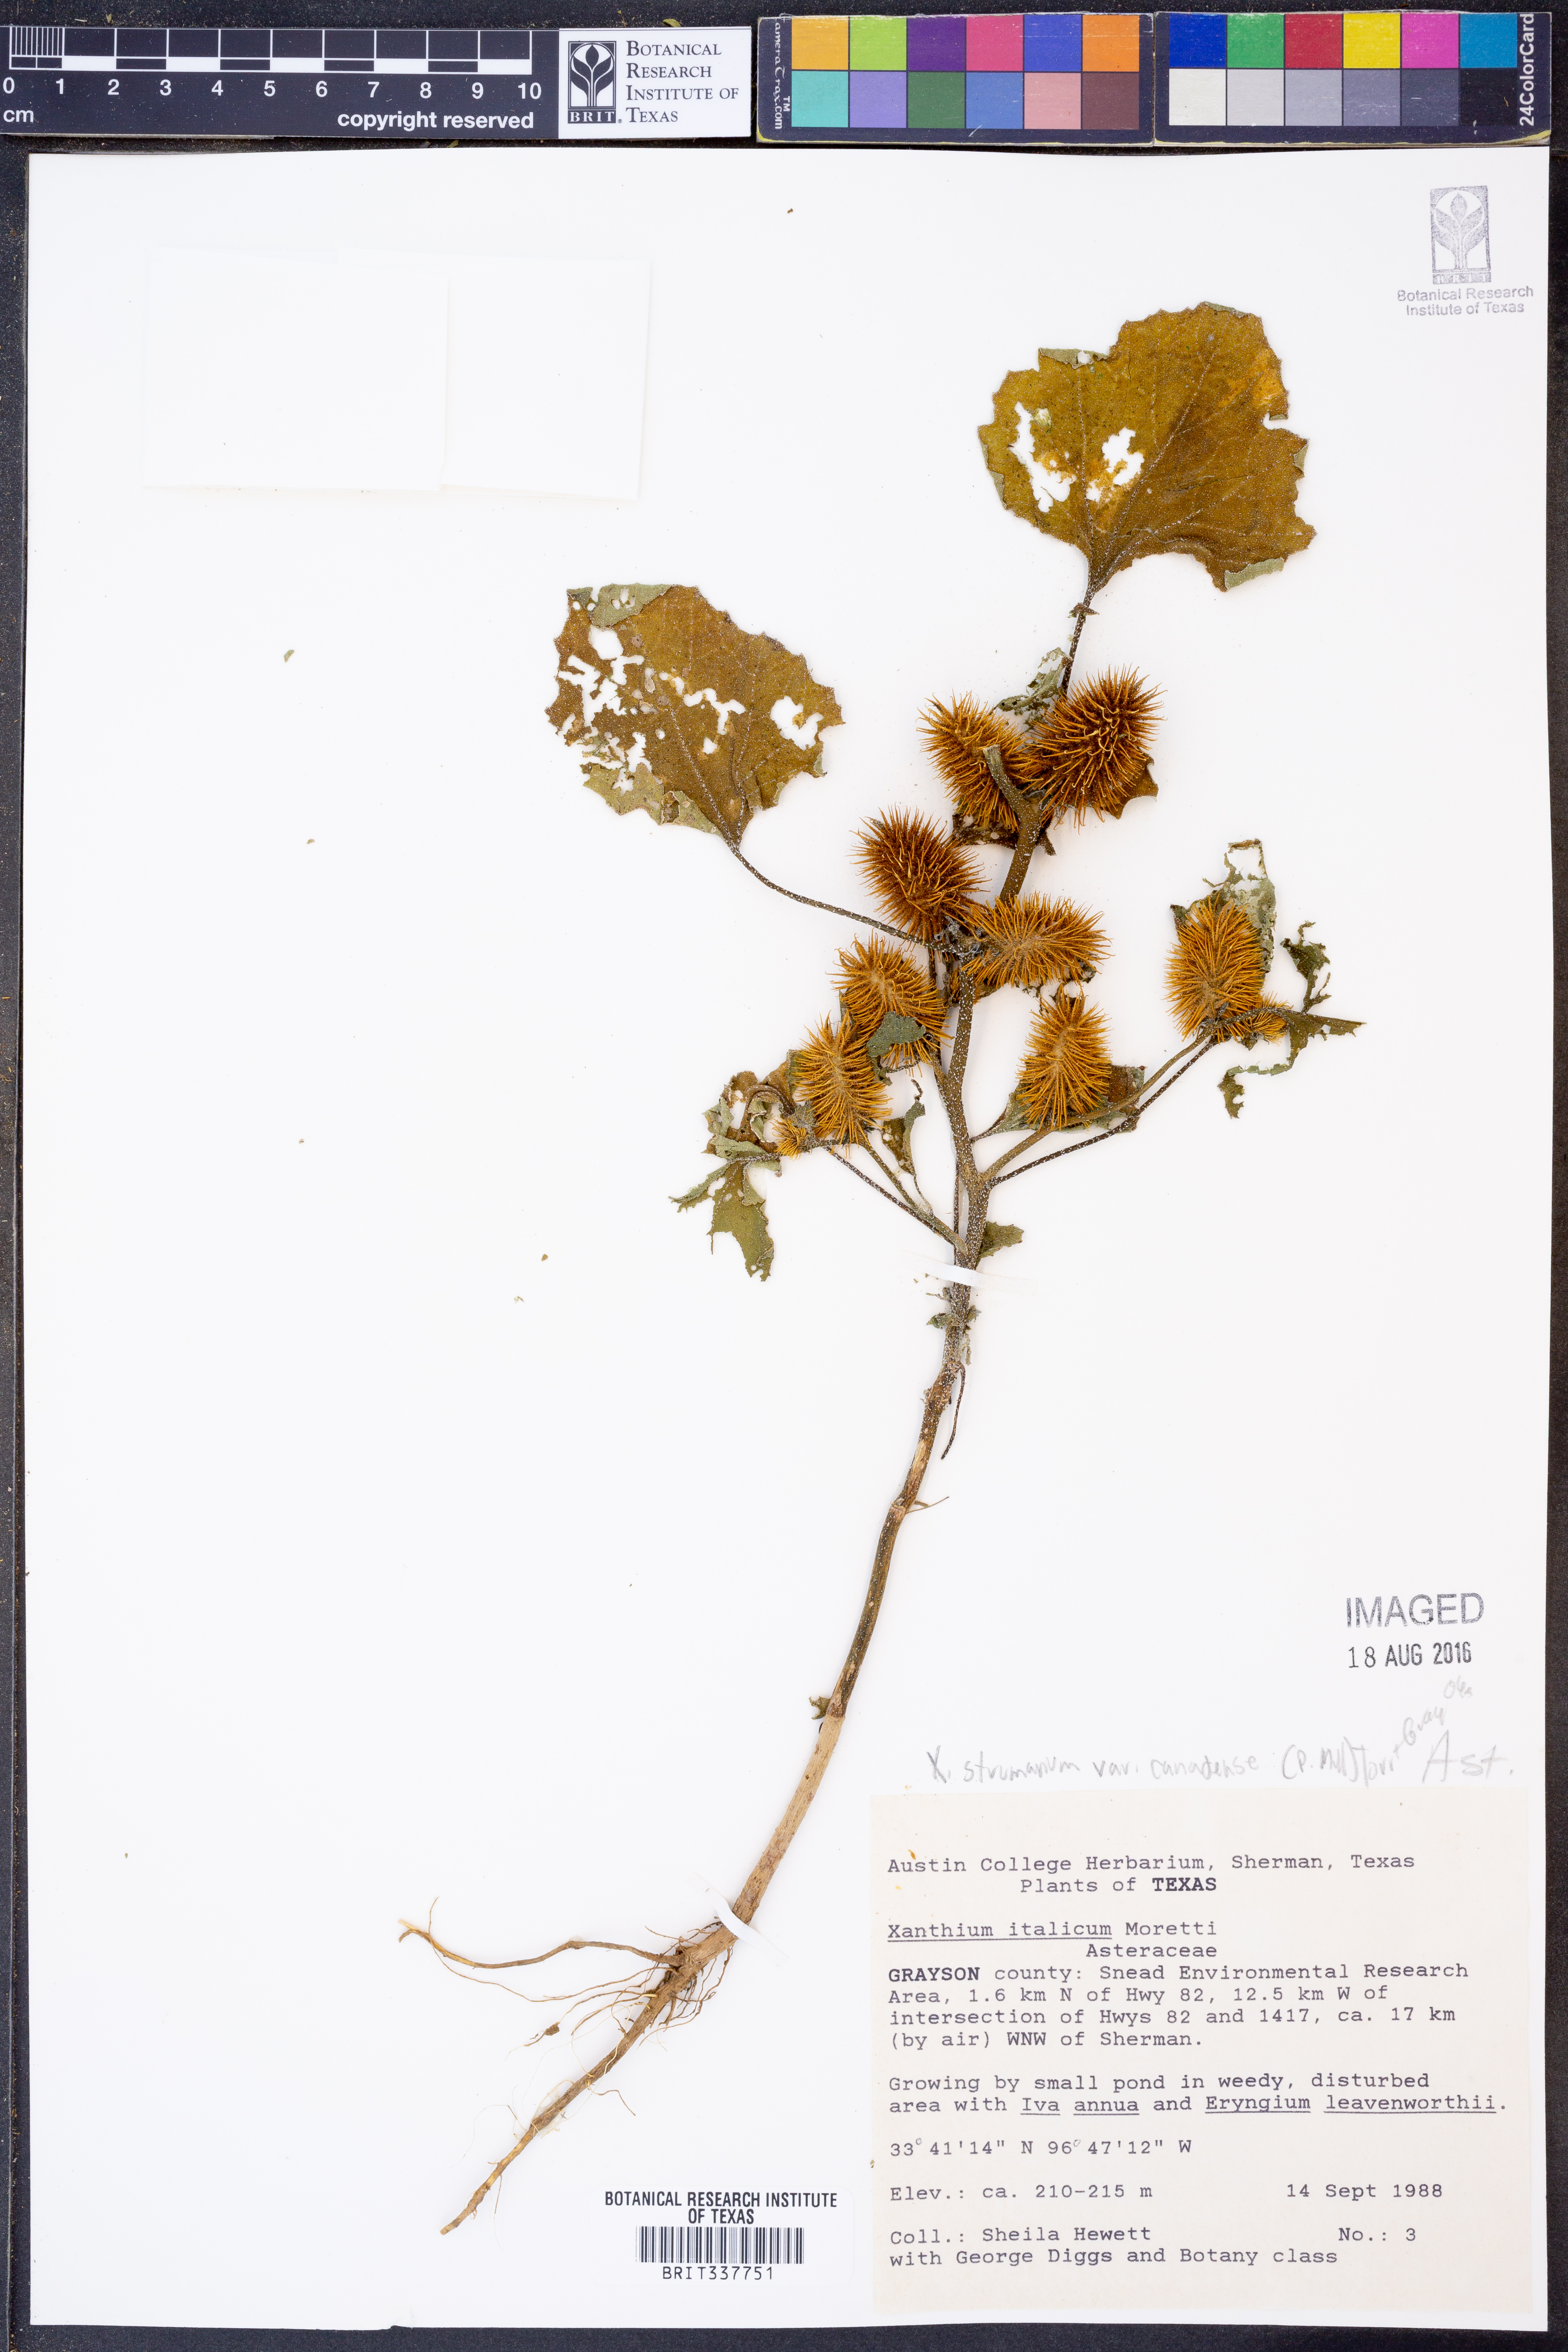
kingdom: Plantae
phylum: Tracheophyta
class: Magnoliopsida
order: Asterales
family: Asteraceae
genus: Xanthium
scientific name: Xanthium orientale
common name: Californian burr
